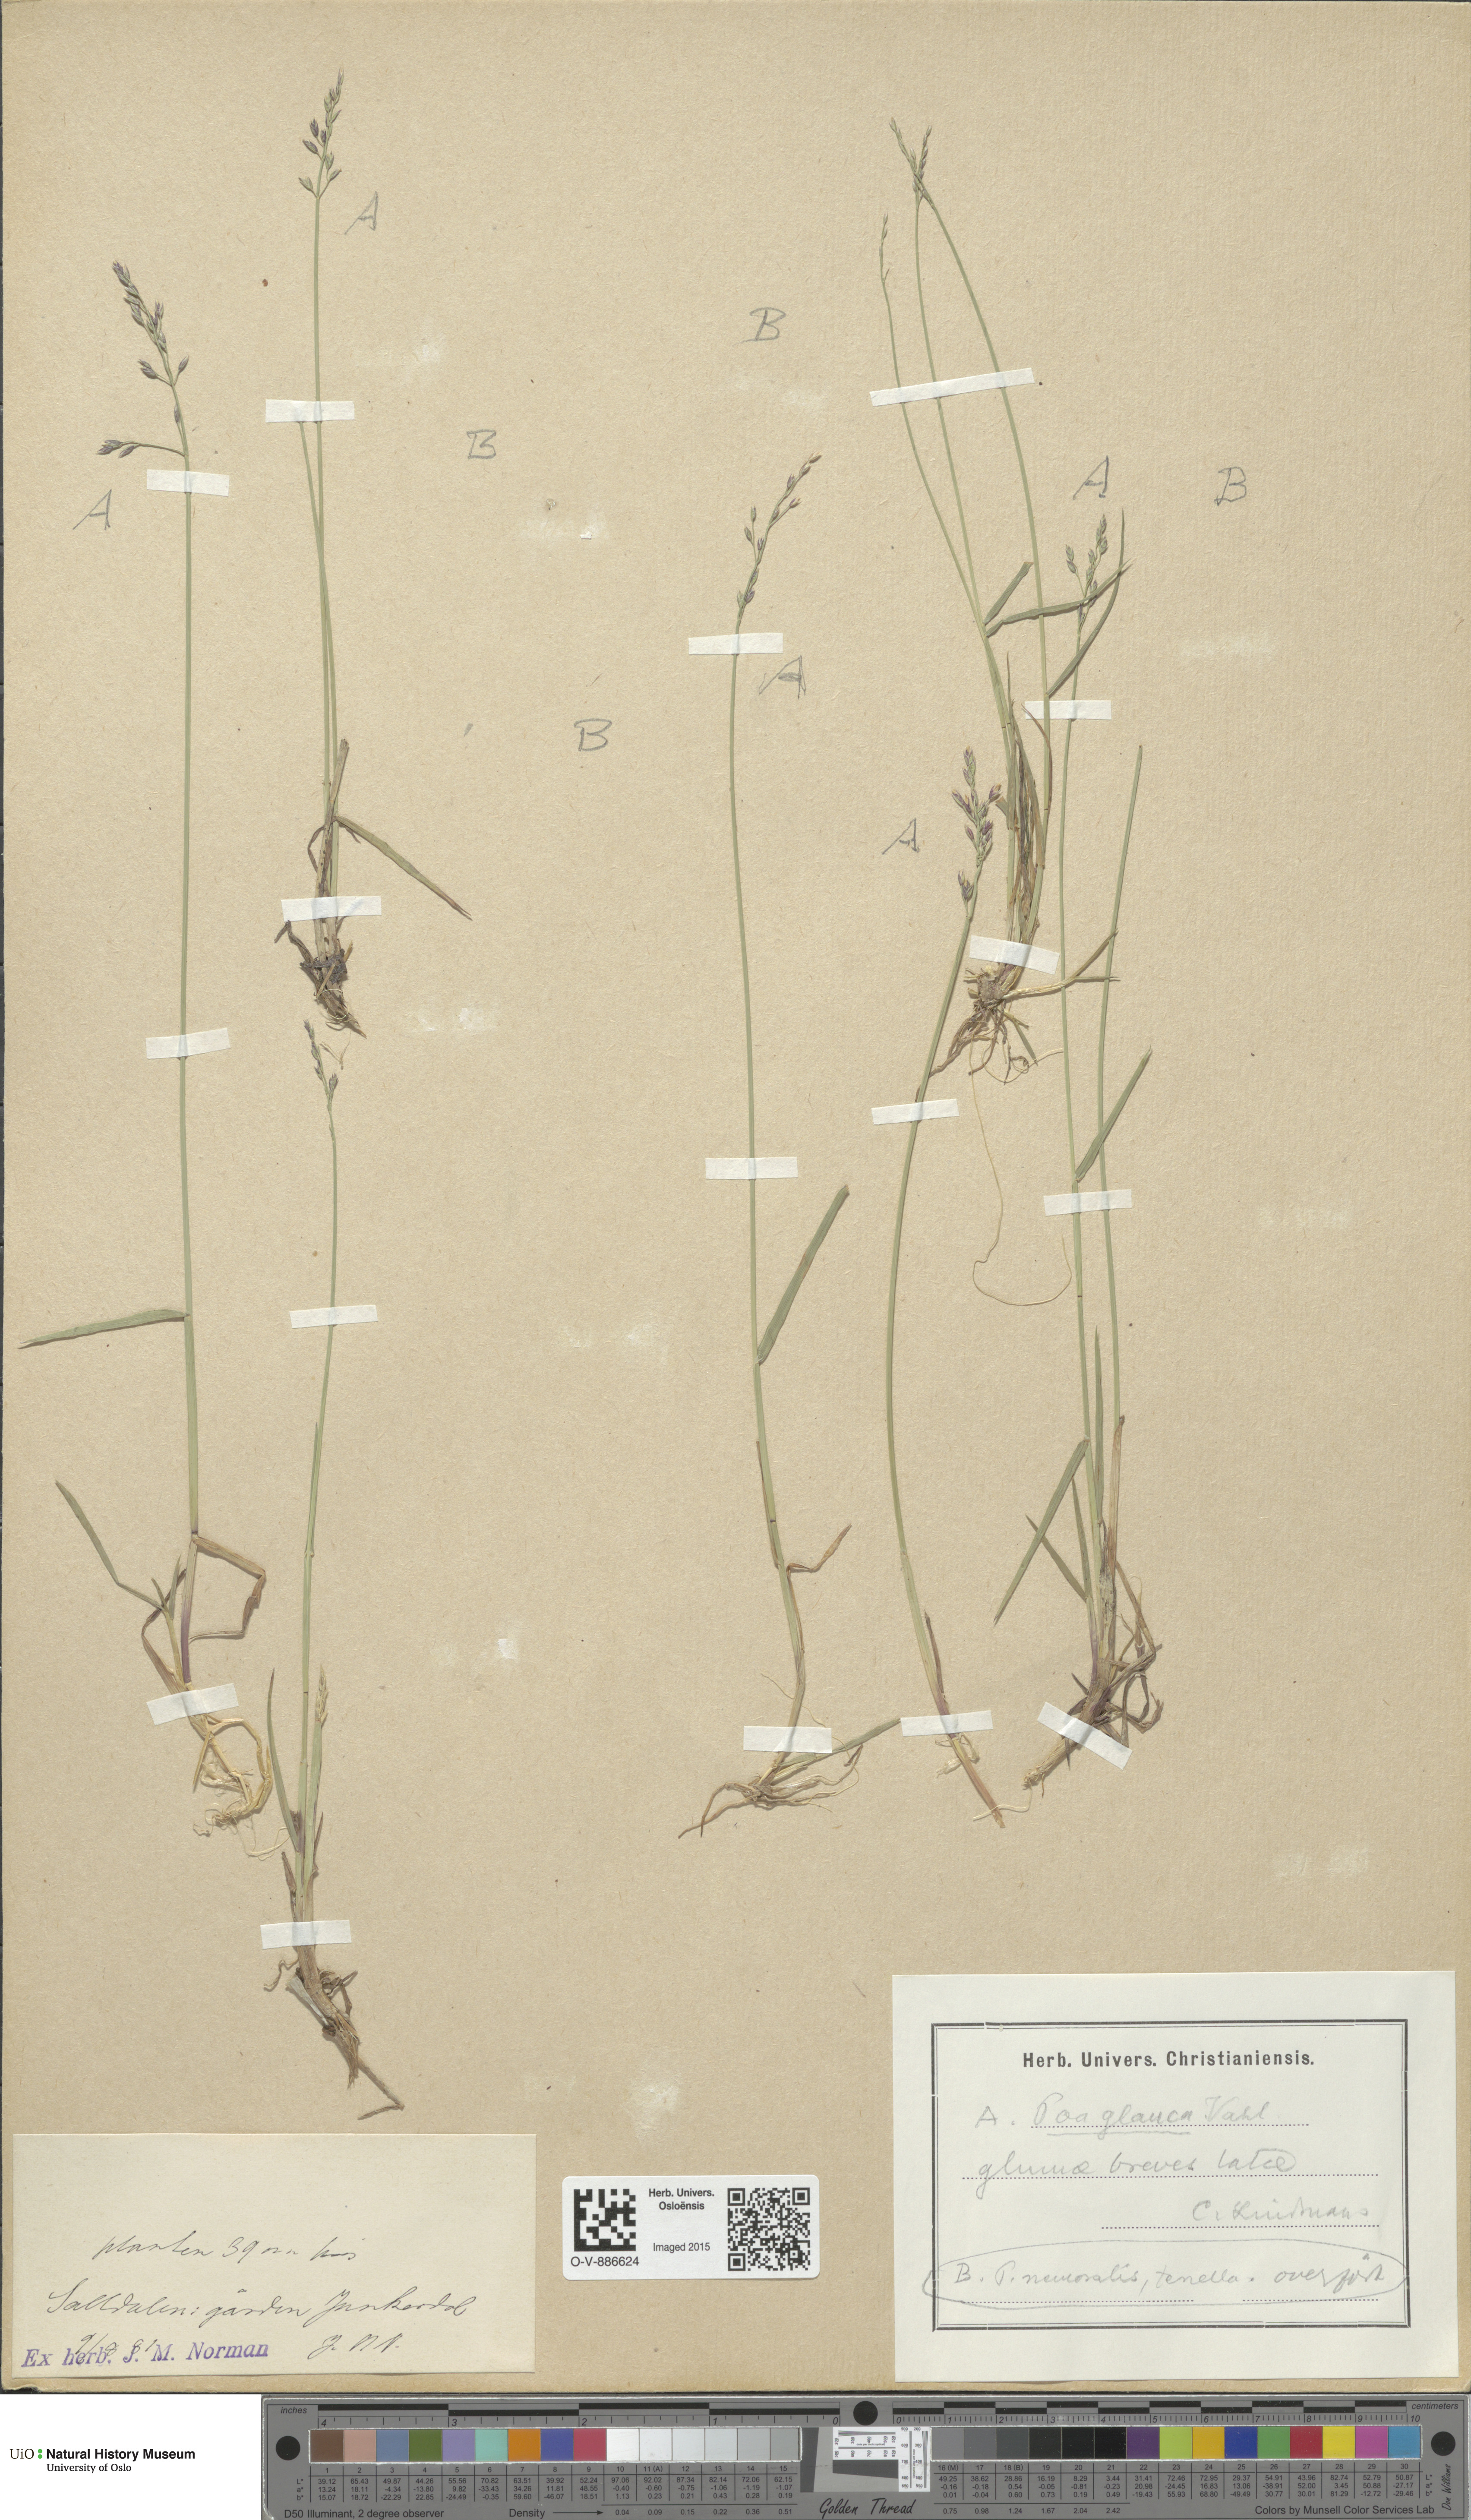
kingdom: Plantae
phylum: Tracheophyta
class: Liliopsida
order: Poales
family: Poaceae
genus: Poa
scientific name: Poa glauca
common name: Glaucous bluegrass
